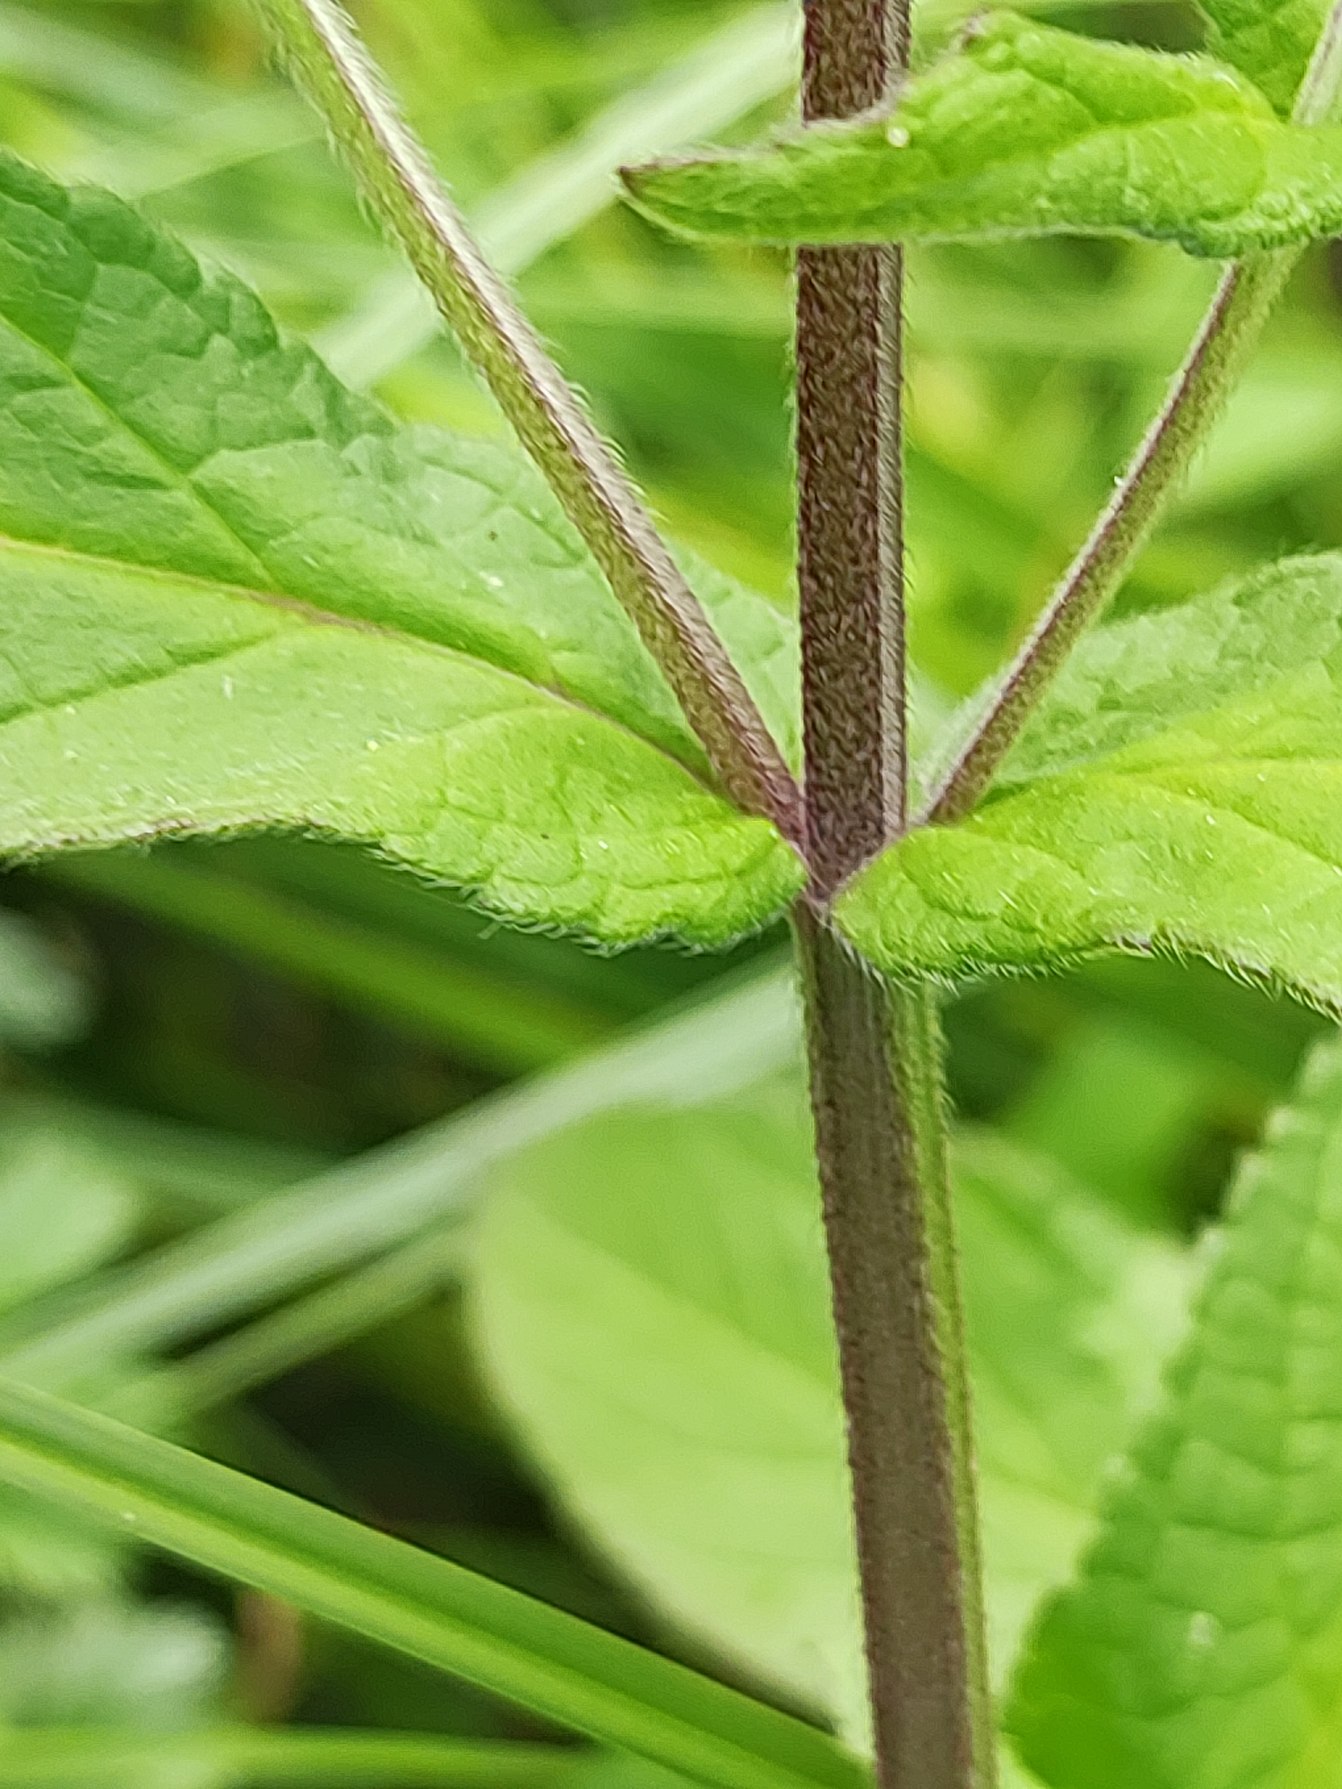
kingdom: Plantae
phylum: Tracheophyta
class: Magnoliopsida
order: Lamiales
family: Lamiaceae
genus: Stachys
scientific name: Stachys palustris
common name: Kær-galtetand
